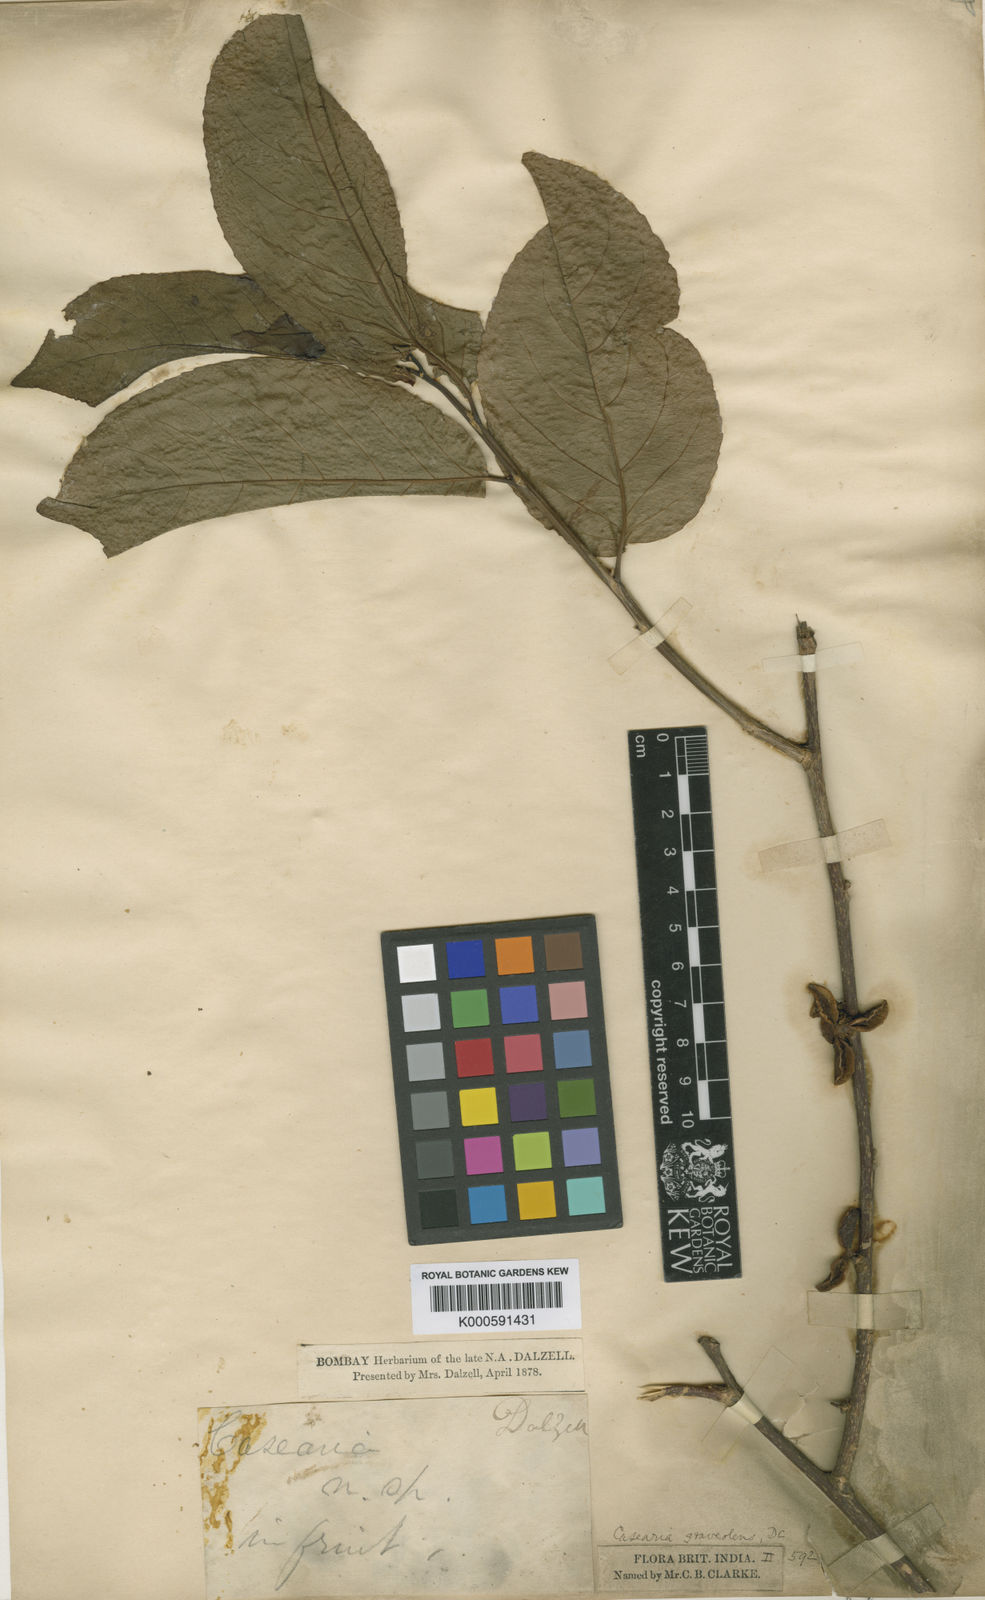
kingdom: Plantae
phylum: Tracheophyta
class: Magnoliopsida
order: Malpighiales
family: Salicaceae
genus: Casearia
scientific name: Casearia
